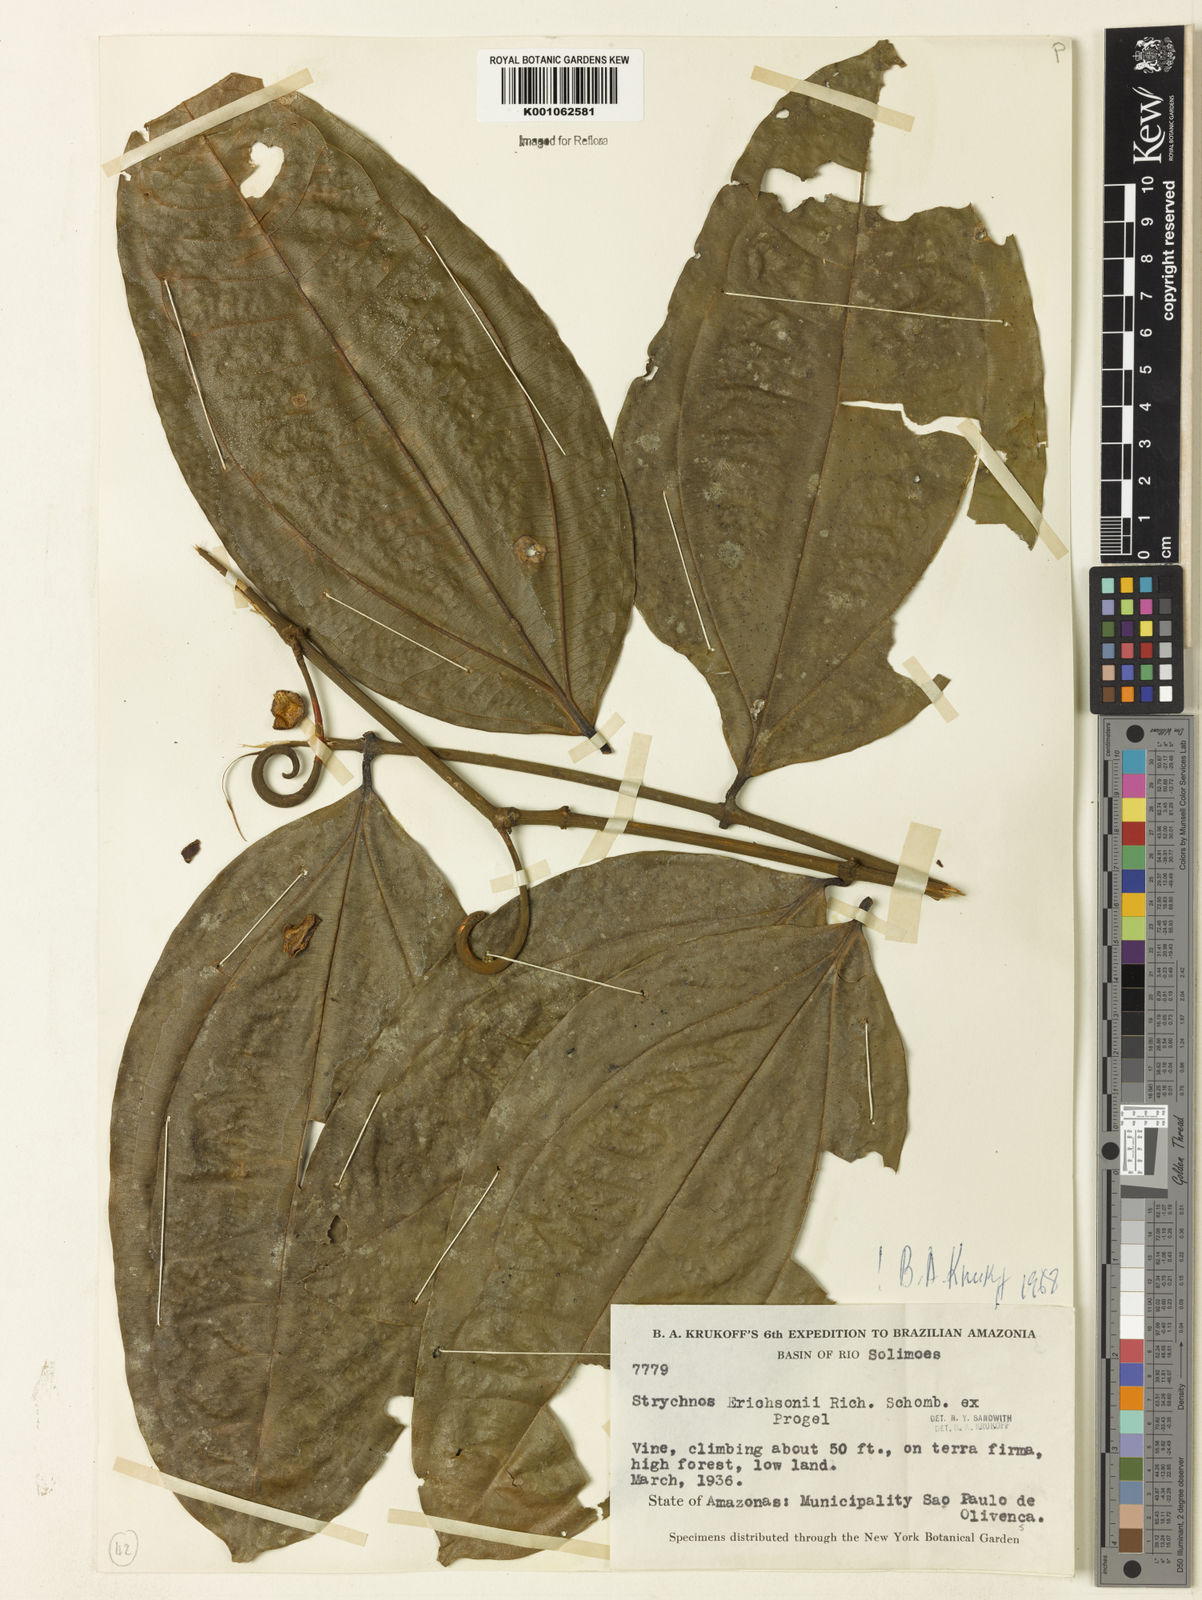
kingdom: Plantae
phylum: Tracheophyta
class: Magnoliopsida
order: Gentianales
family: Loganiaceae
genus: Strychnos
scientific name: Strychnos erichsonii
